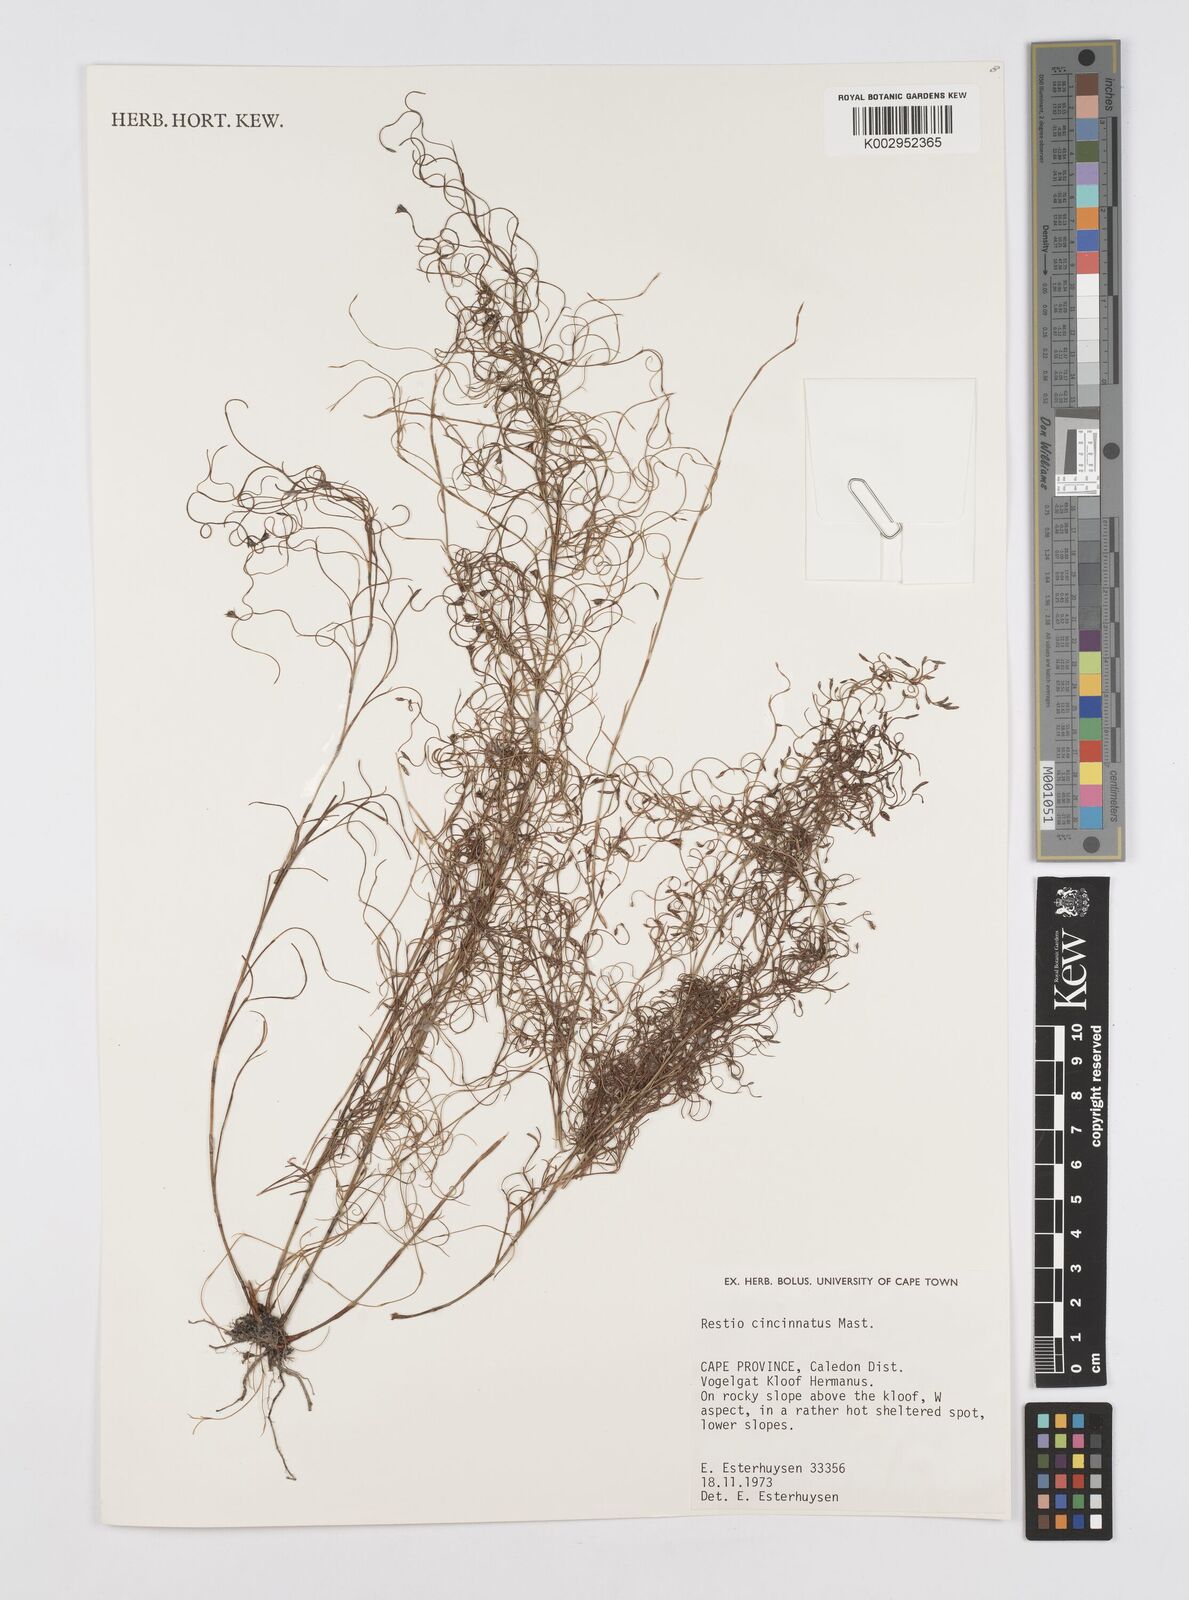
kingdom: Plantae
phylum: Tracheophyta
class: Liliopsida
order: Poales
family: Restionaceae
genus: Restio
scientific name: Restio cincinnatus
